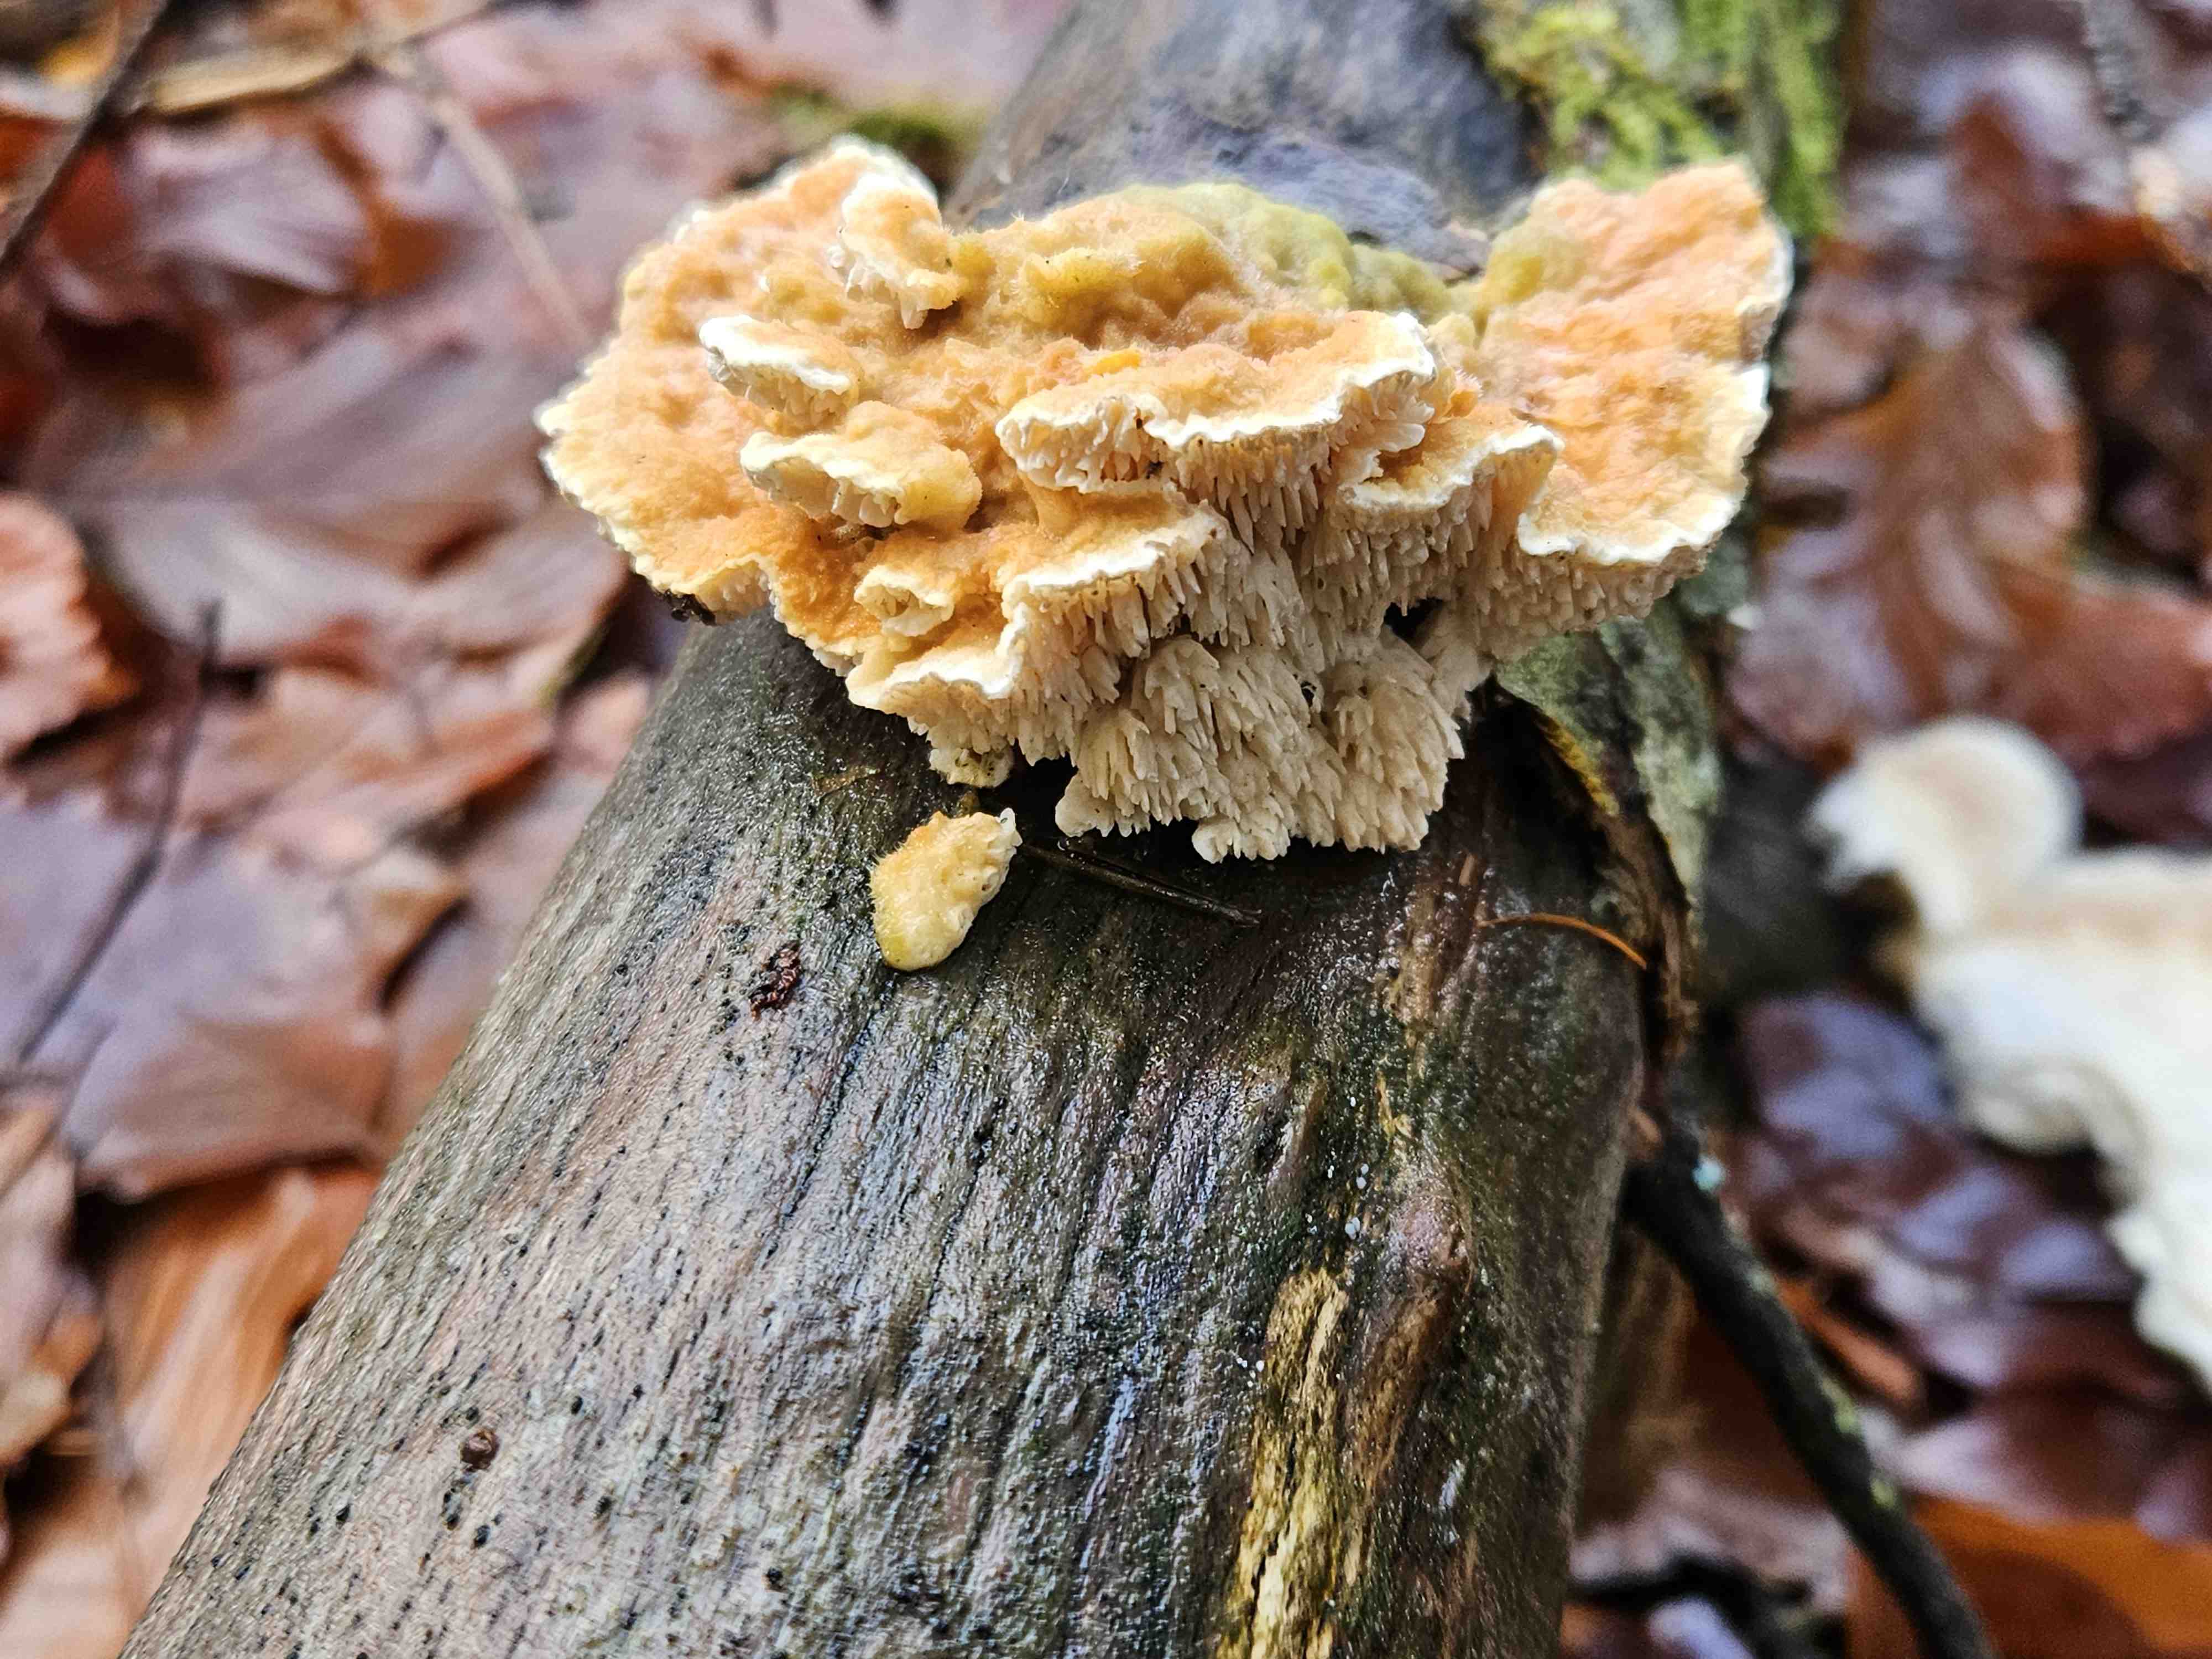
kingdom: Fungi
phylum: Basidiomycota
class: Agaricomycetes
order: Polyporales
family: Polyporaceae
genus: Lenzites
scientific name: Lenzites betulinus
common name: birke-læderporesvamp
